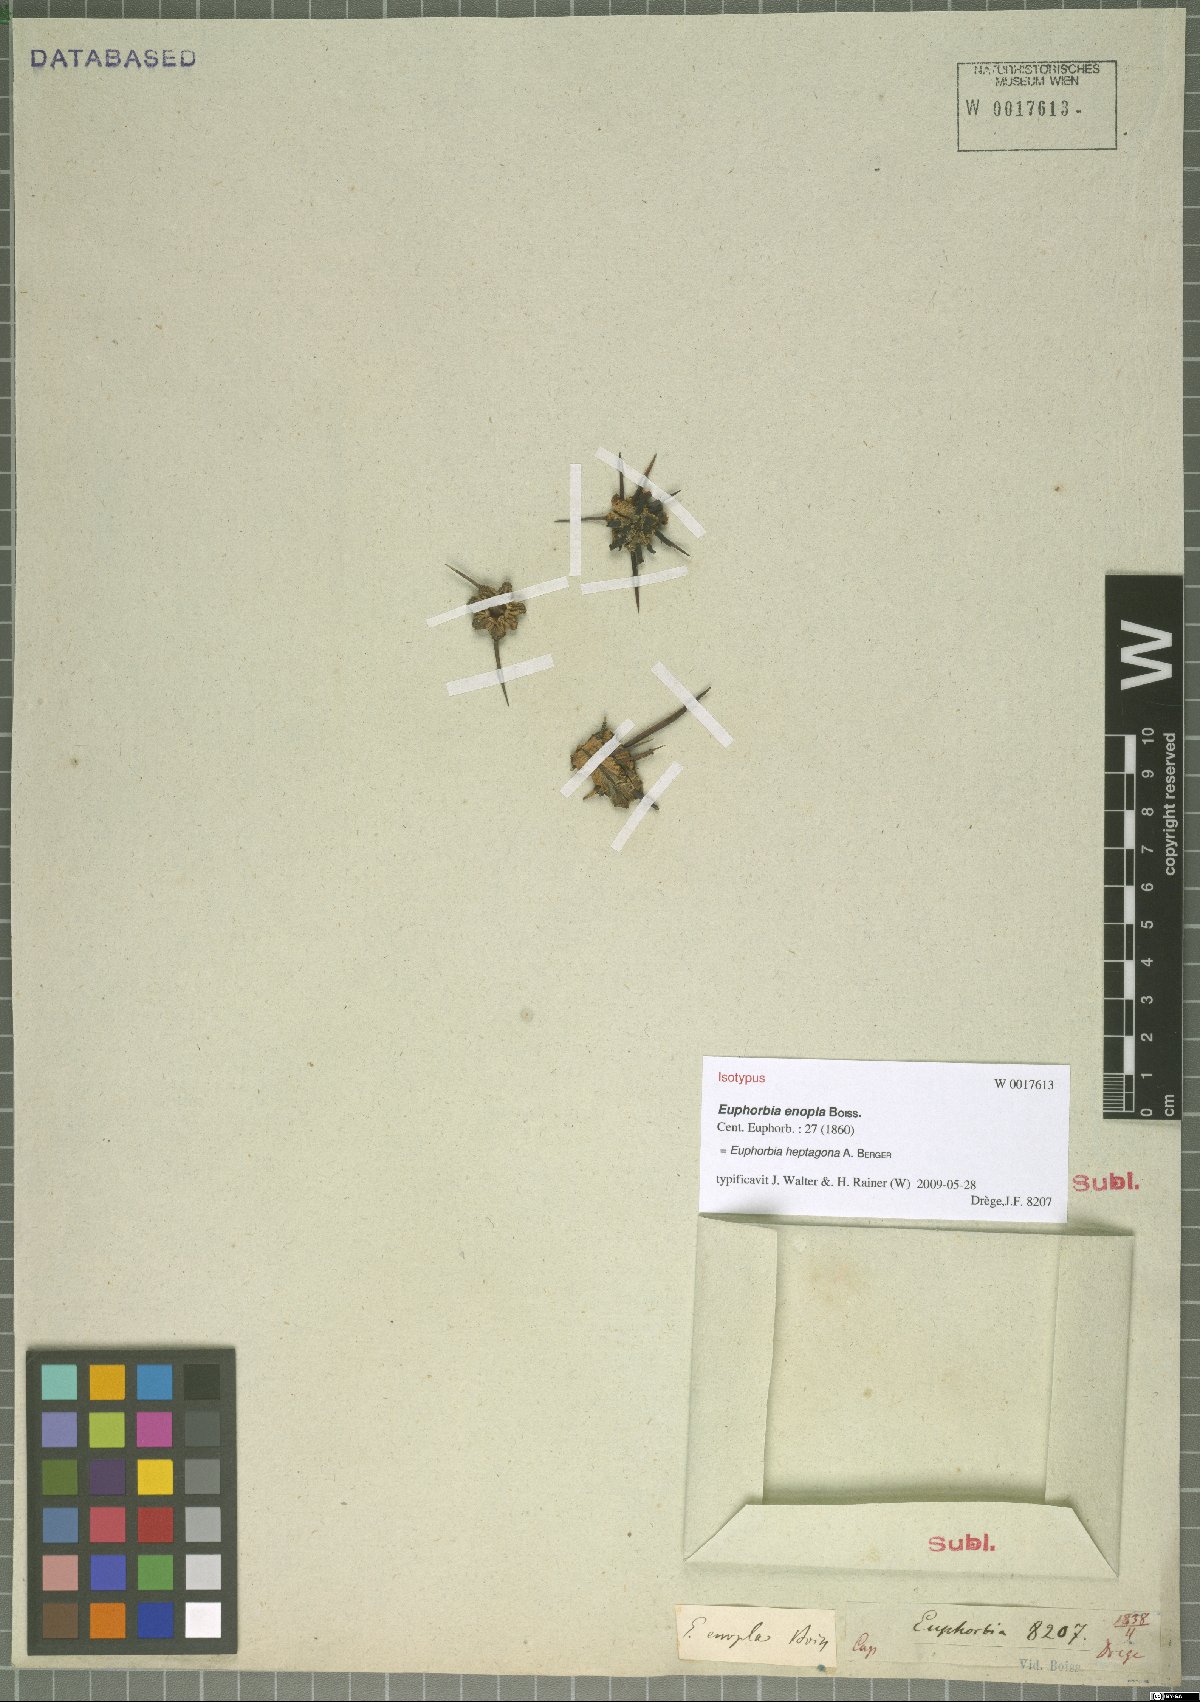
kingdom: Plantae
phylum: Tracheophyta
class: Magnoliopsida
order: Malpighiales
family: Euphorbiaceae
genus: Euphorbia
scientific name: Euphorbia pentagona
